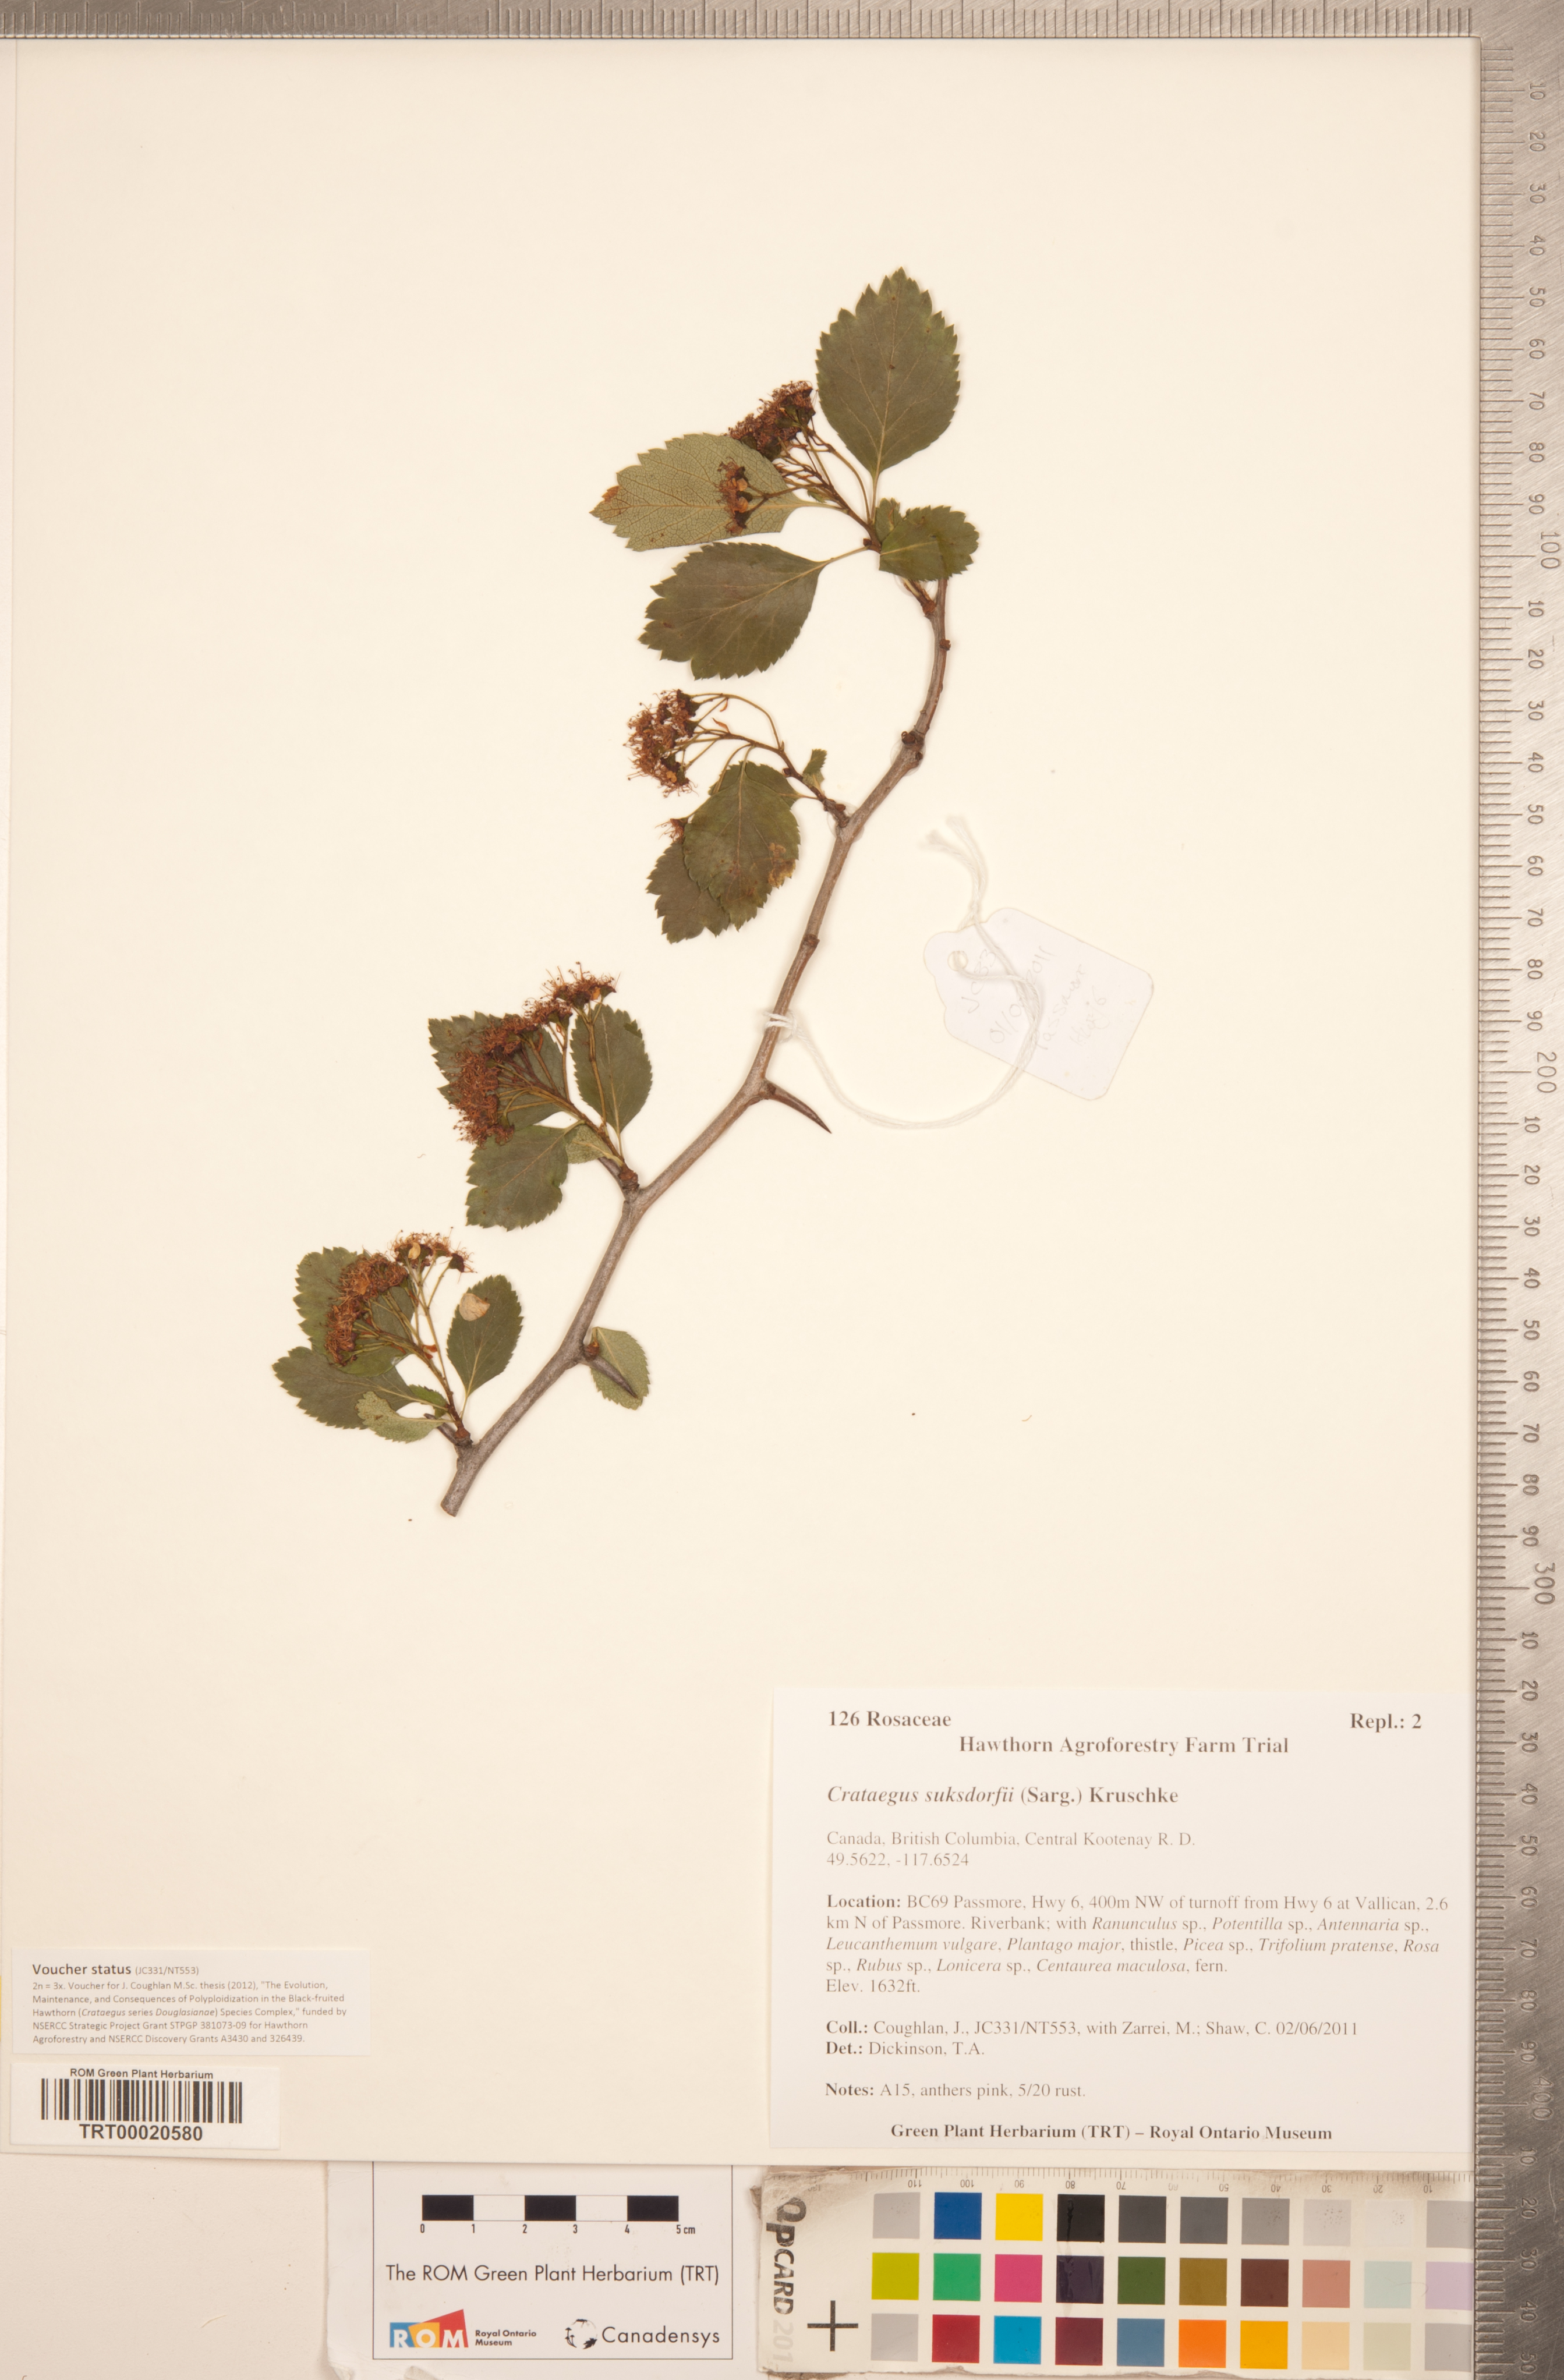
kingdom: Plantae
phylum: Tracheophyta
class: Magnoliopsida
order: Rosales
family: Rosaceae
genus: Crataegus
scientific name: Crataegus gaylussacia
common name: Huckleberry hawthorn
